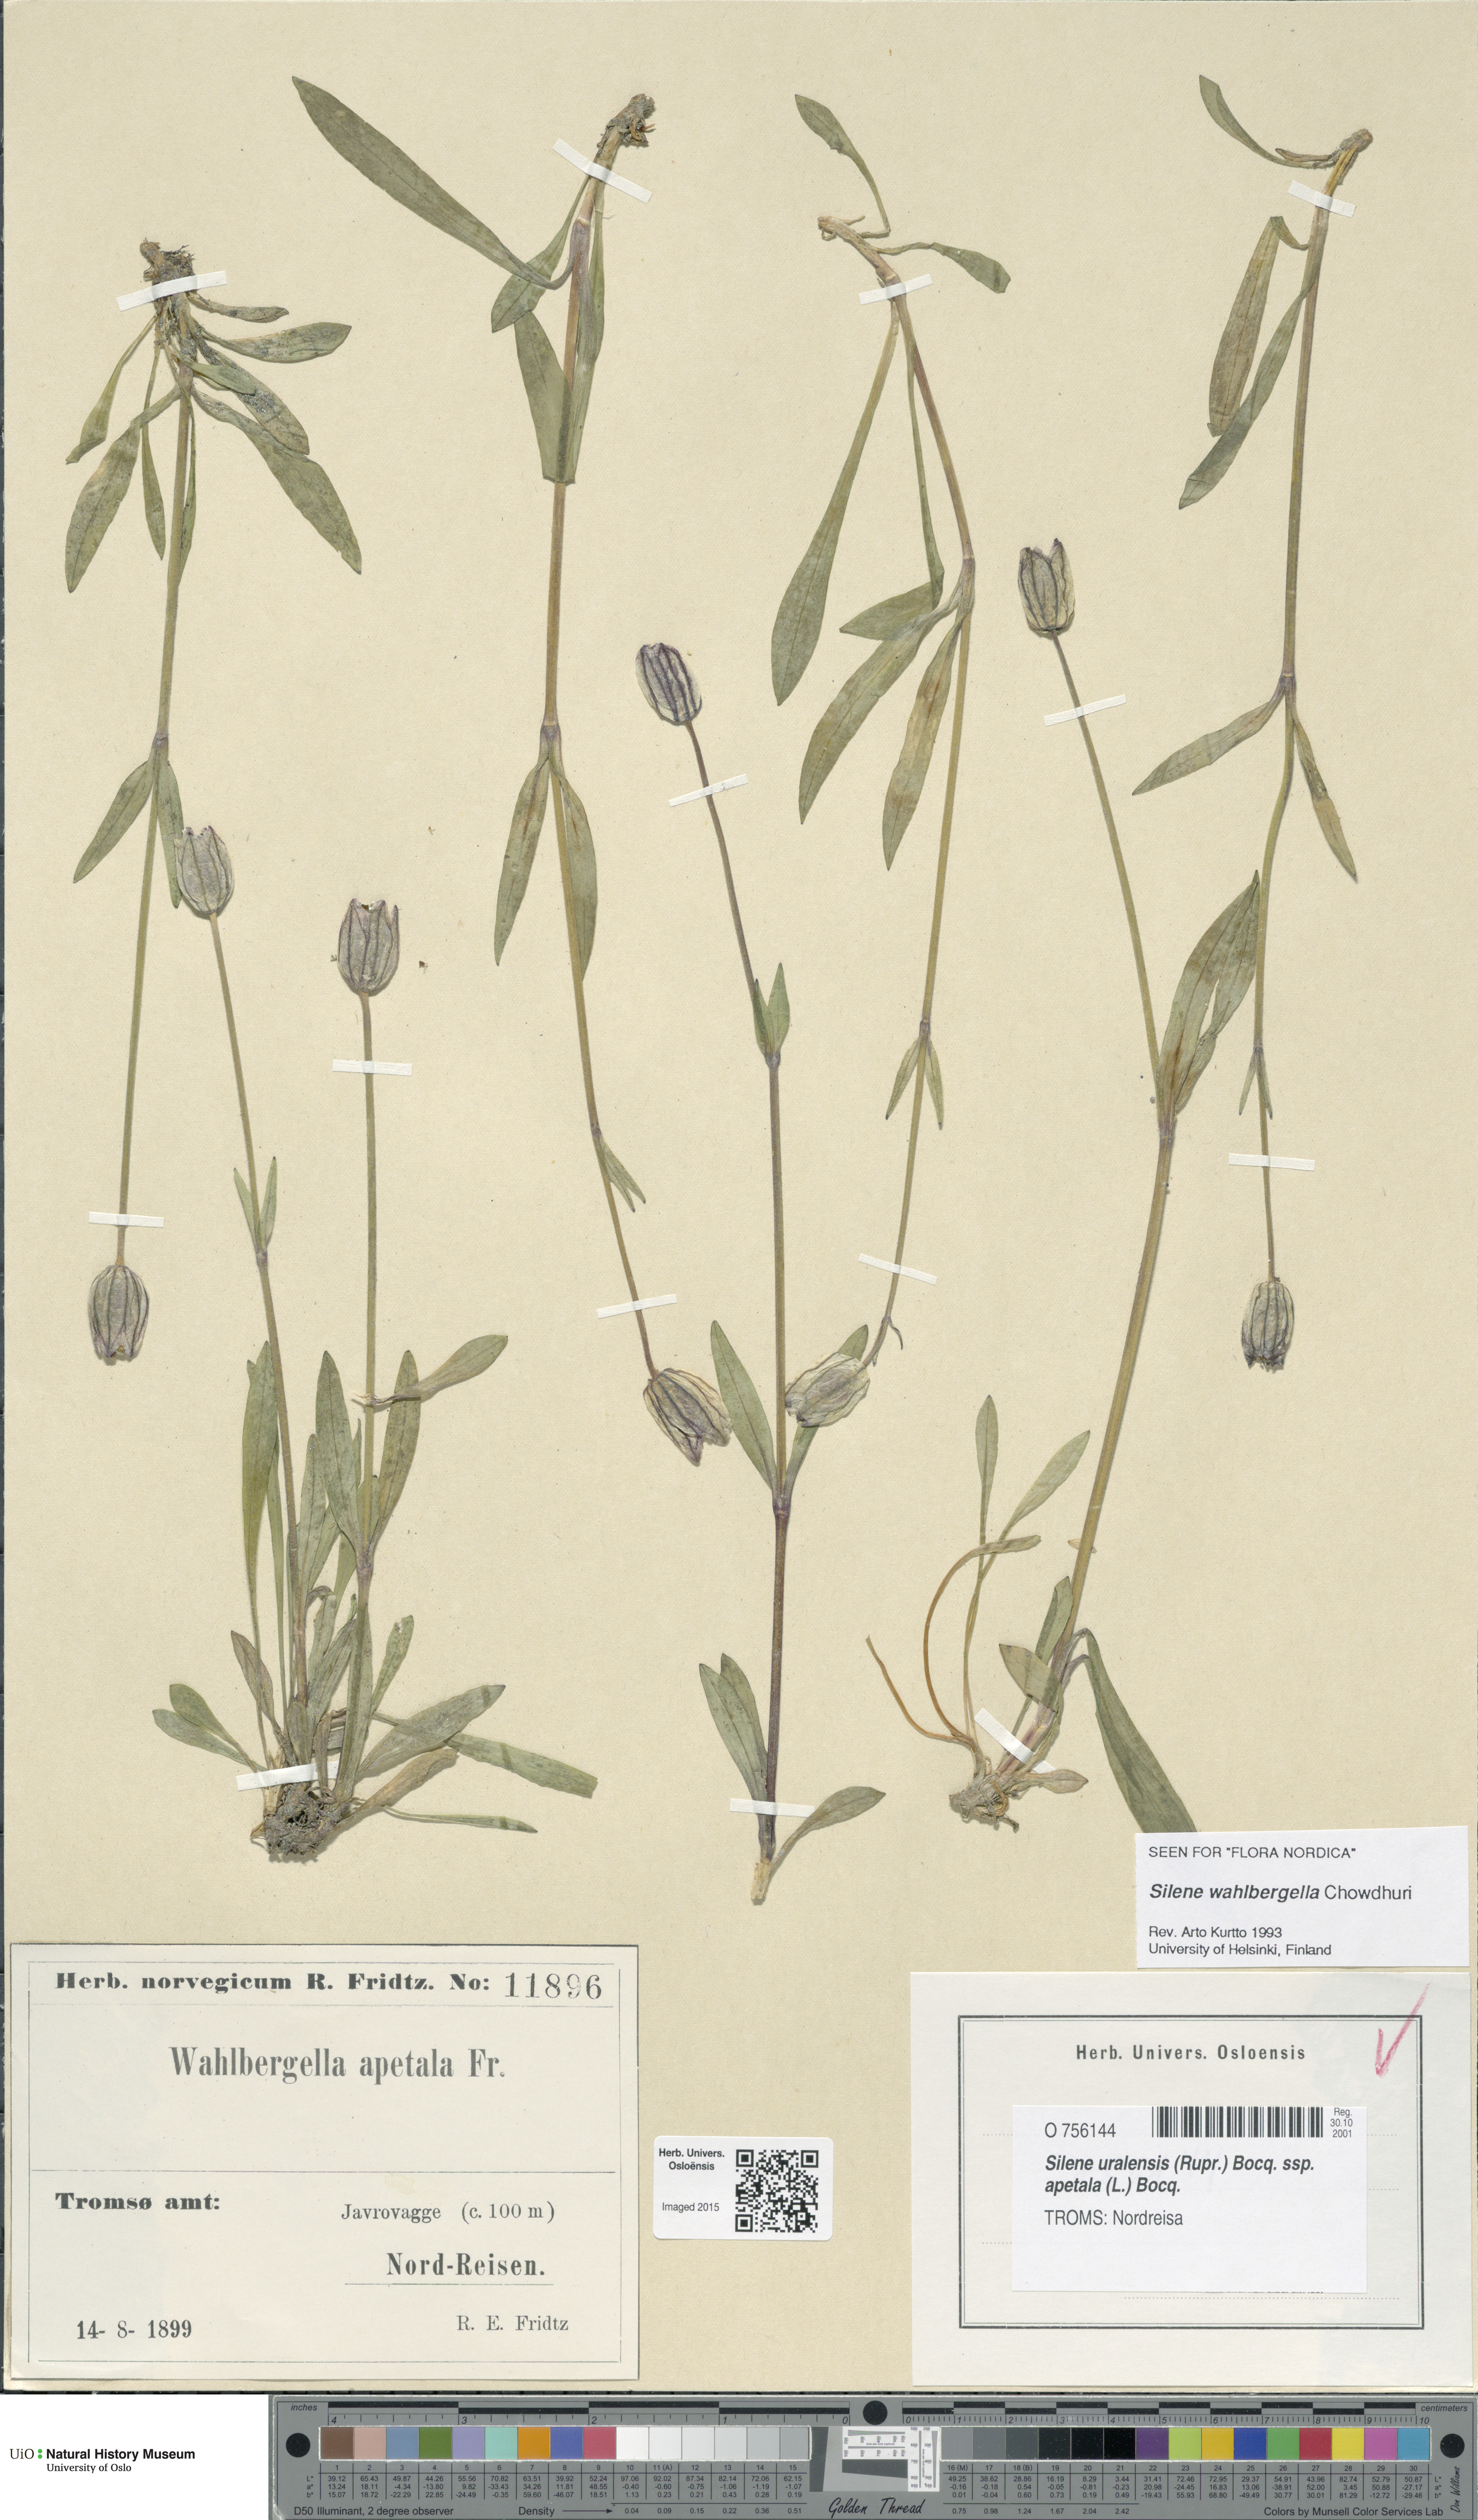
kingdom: Plantae
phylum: Tracheophyta
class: Magnoliopsida
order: Caryophyllales
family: Caryophyllaceae
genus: Silene
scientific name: Silene wahlbergella
